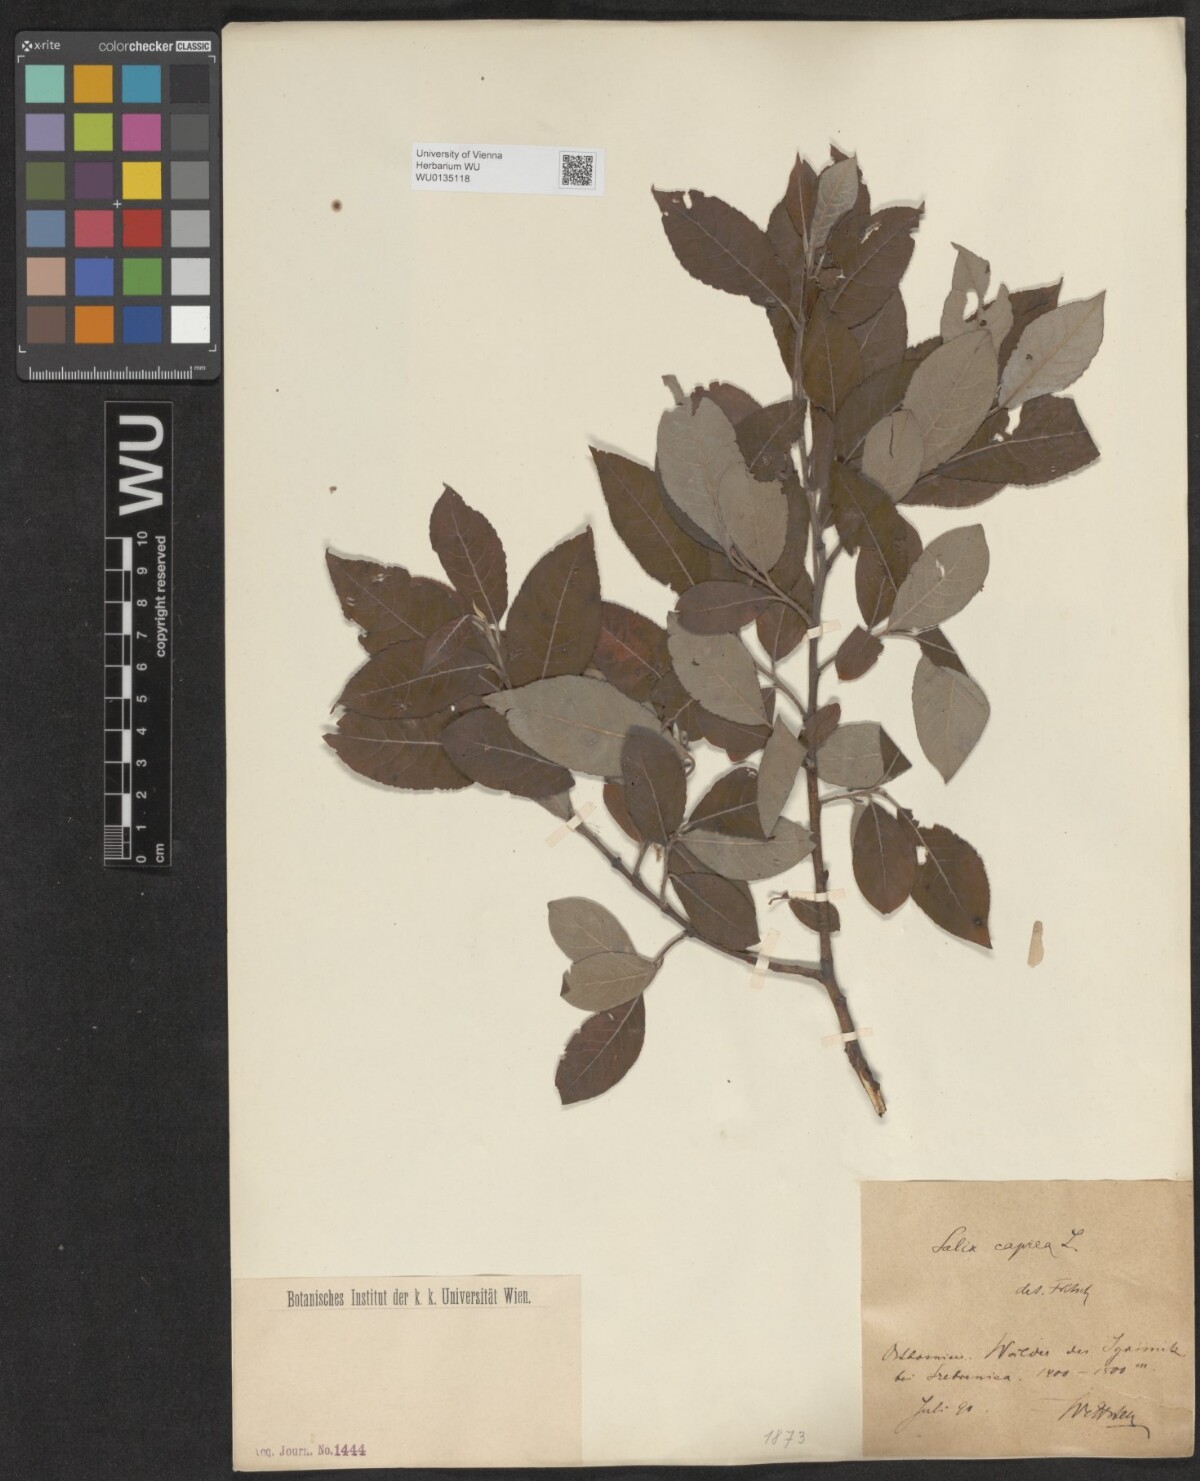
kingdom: Plantae
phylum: Tracheophyta
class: Magnoliopsida
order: Malpighiales
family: Salicaceae
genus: Salix
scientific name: Salix caprea
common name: Goat willow
